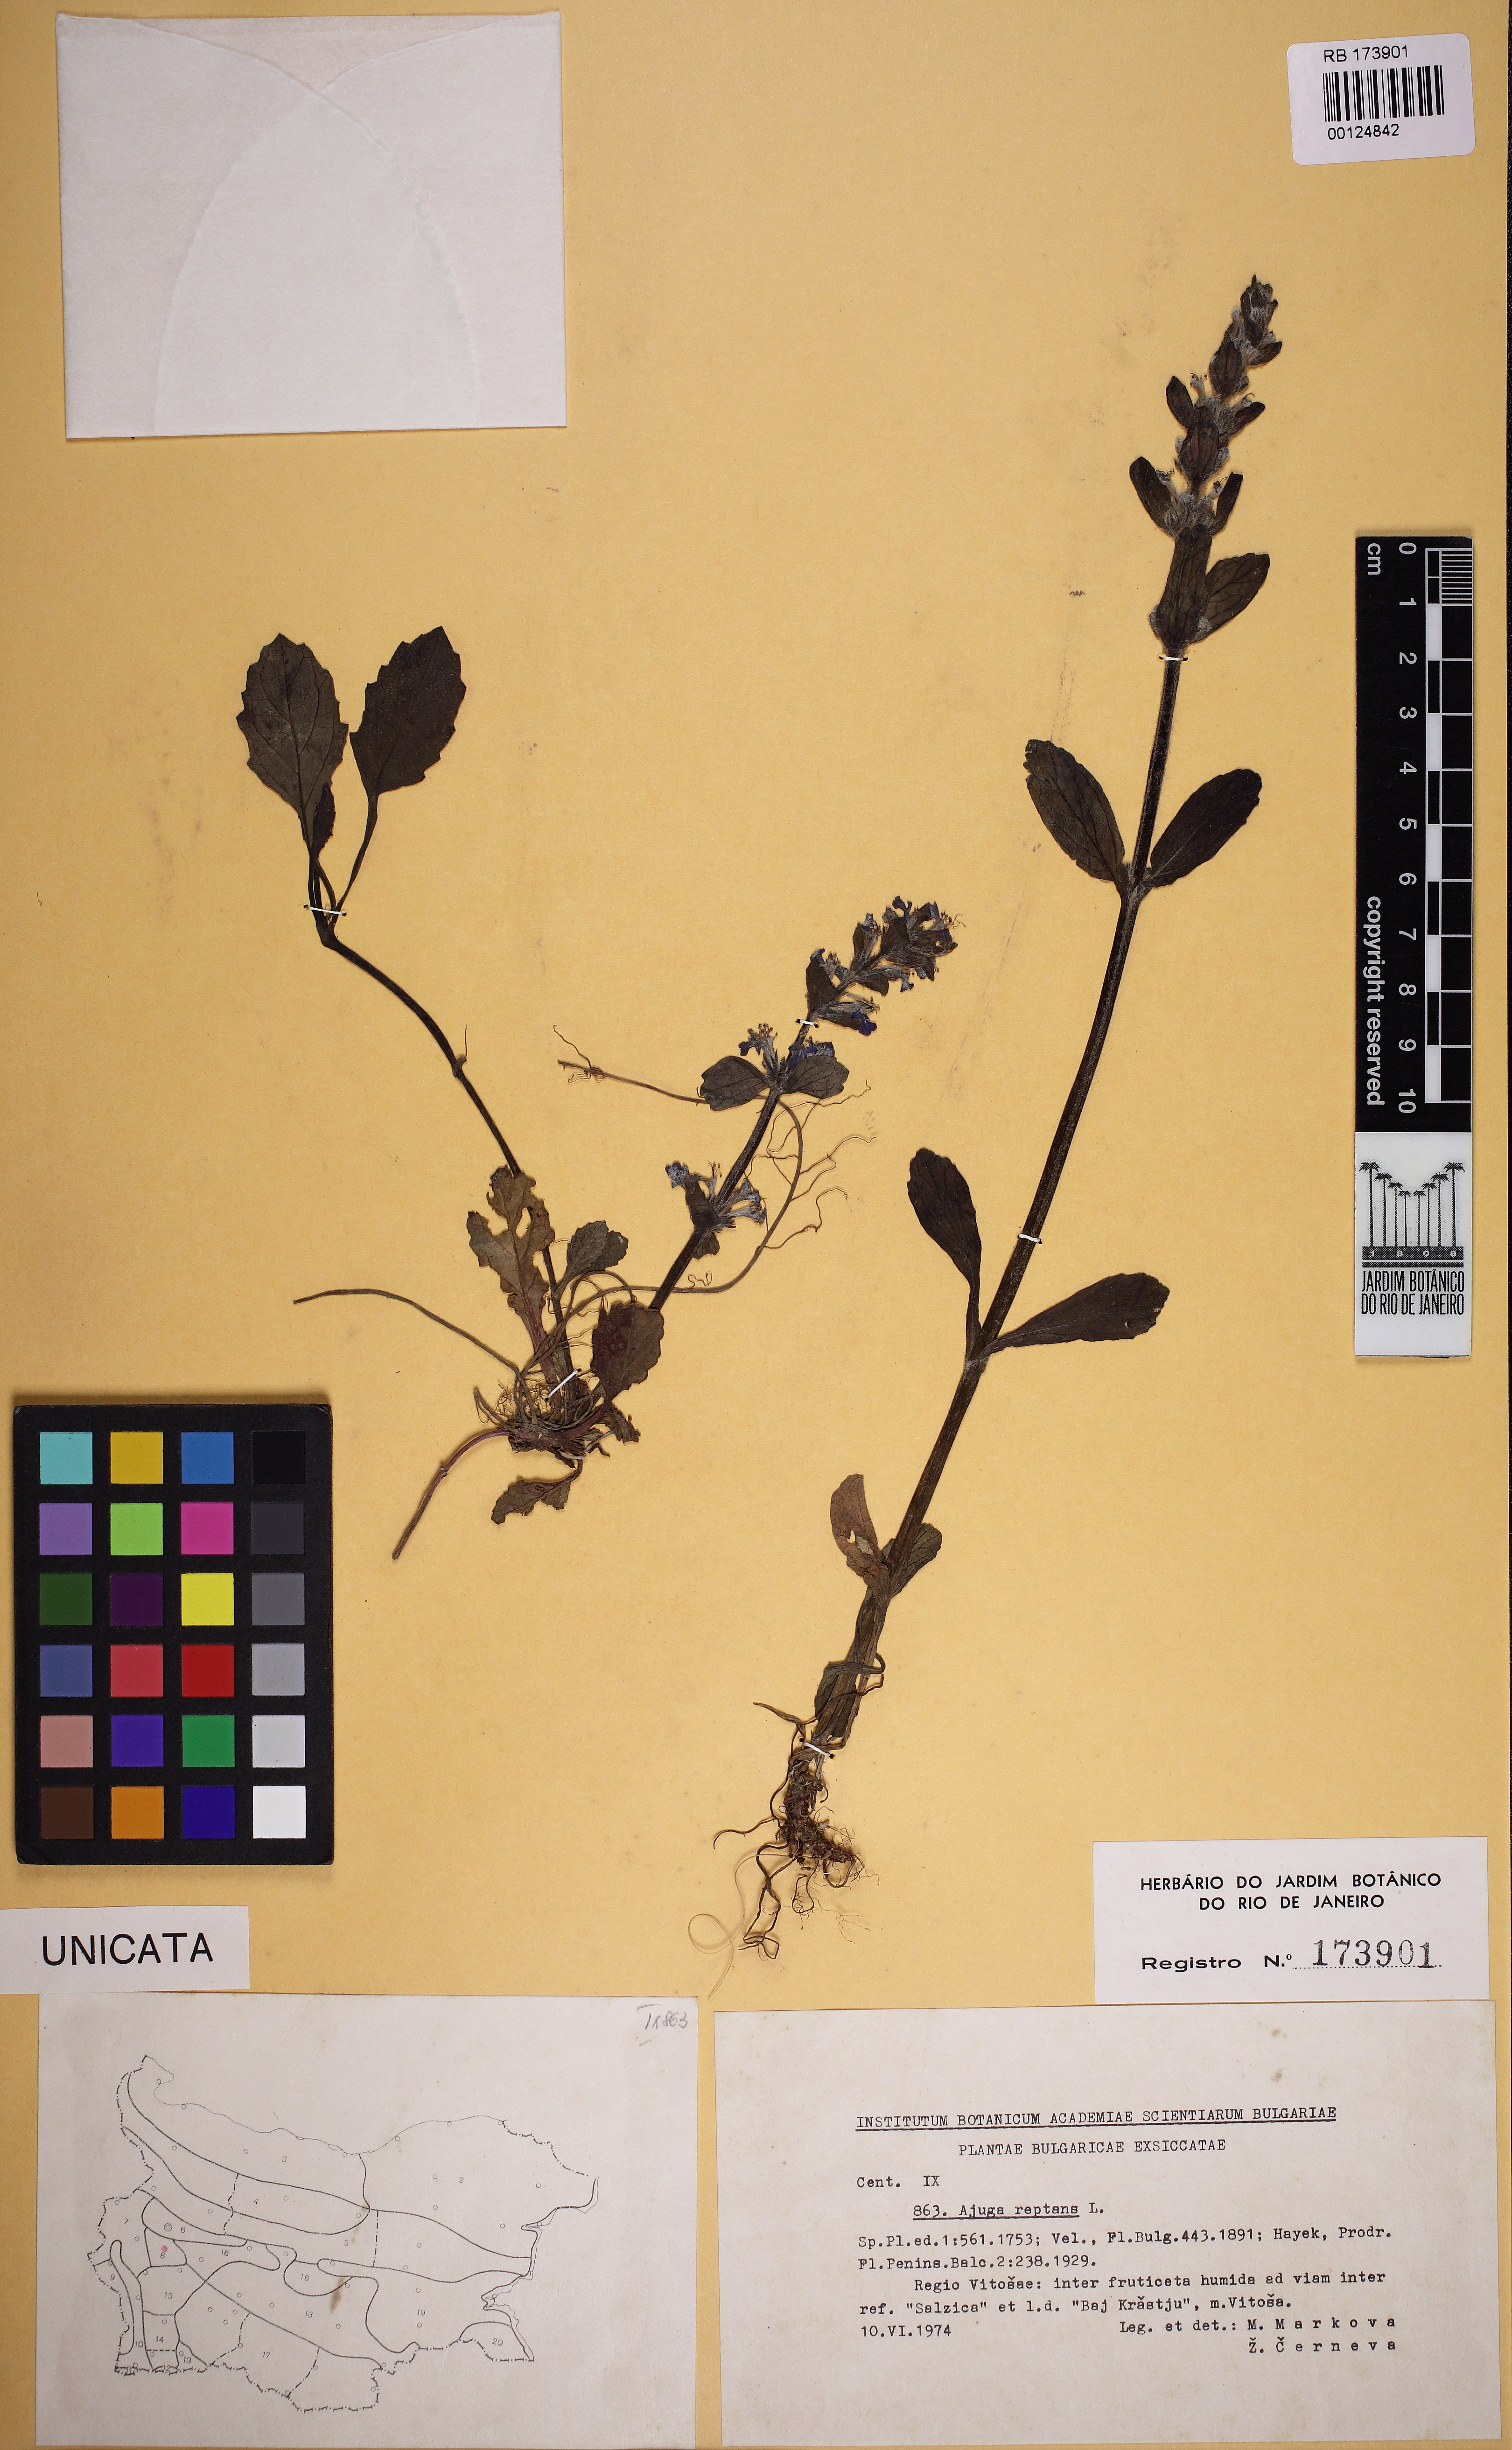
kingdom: Plantae
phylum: Tracheophyta
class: Magnoliopsida
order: Lamiales
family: Lamiaceae
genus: Ajuga
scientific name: Ajuga reptans
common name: Bugle
